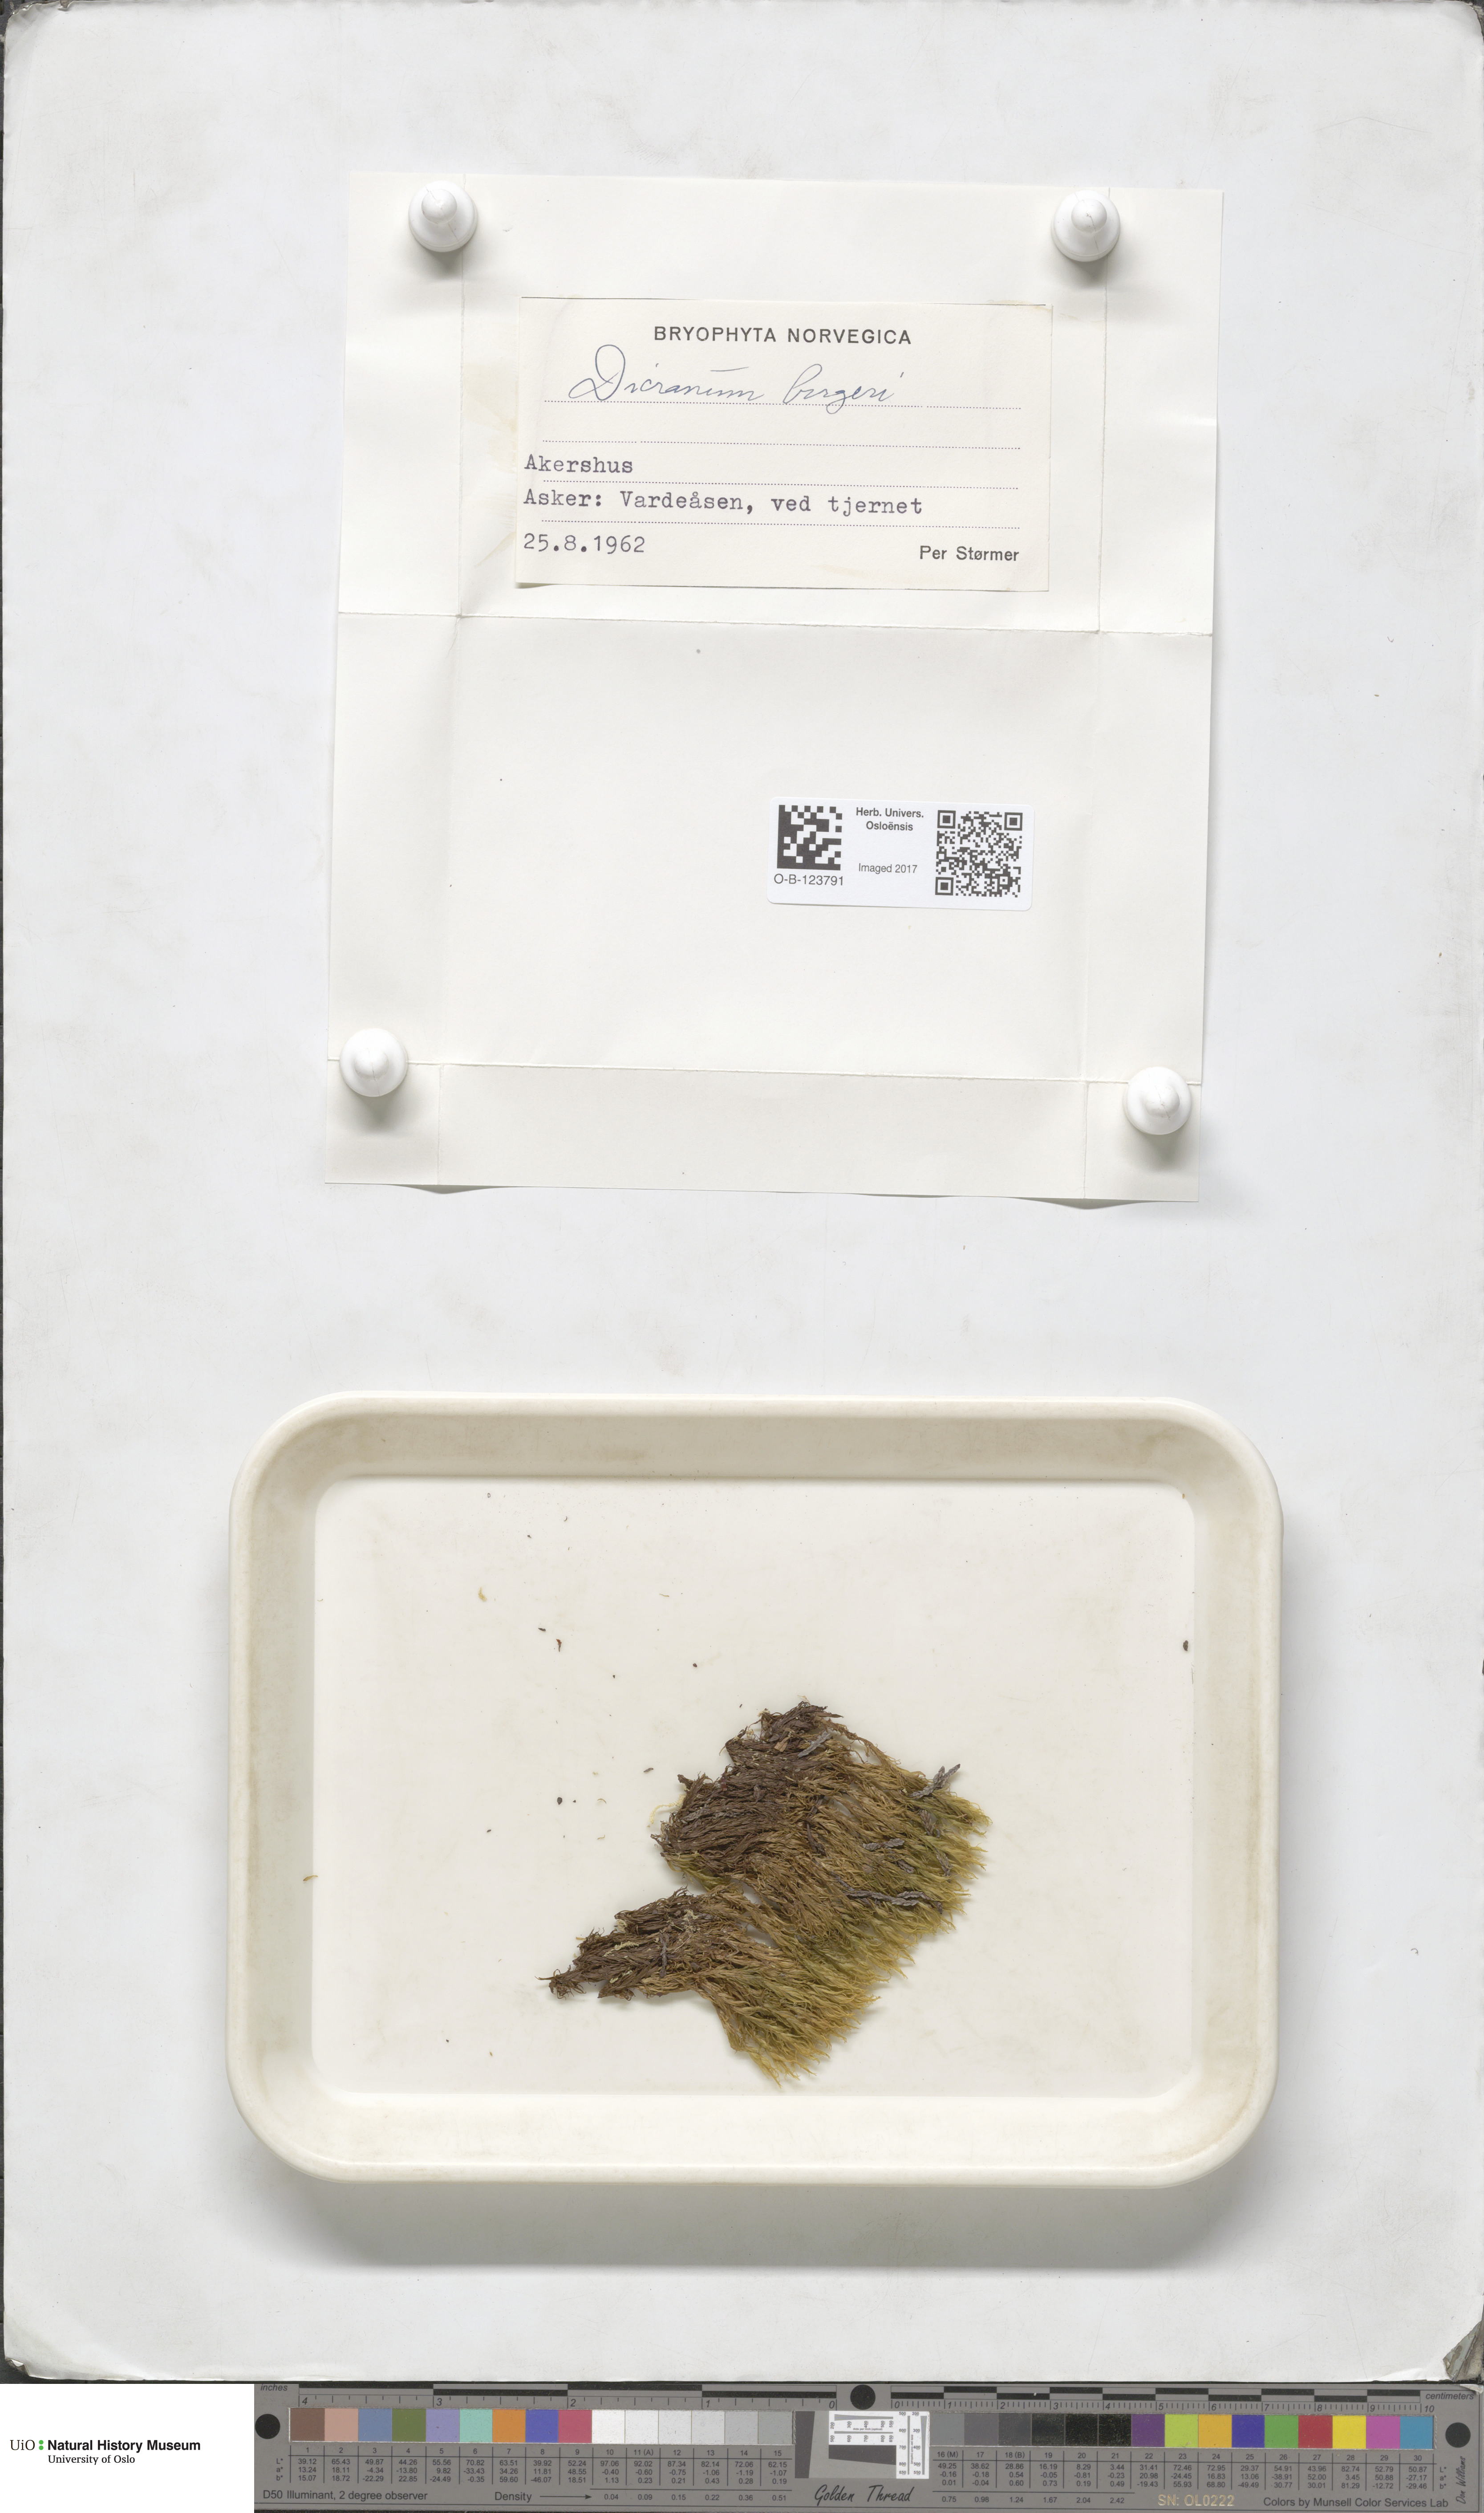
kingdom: Plantae
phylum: Bryophyta
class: Bryopsida
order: Dicranales
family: Dicranaceae
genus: Dicranum
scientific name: Dicranum undulatum
